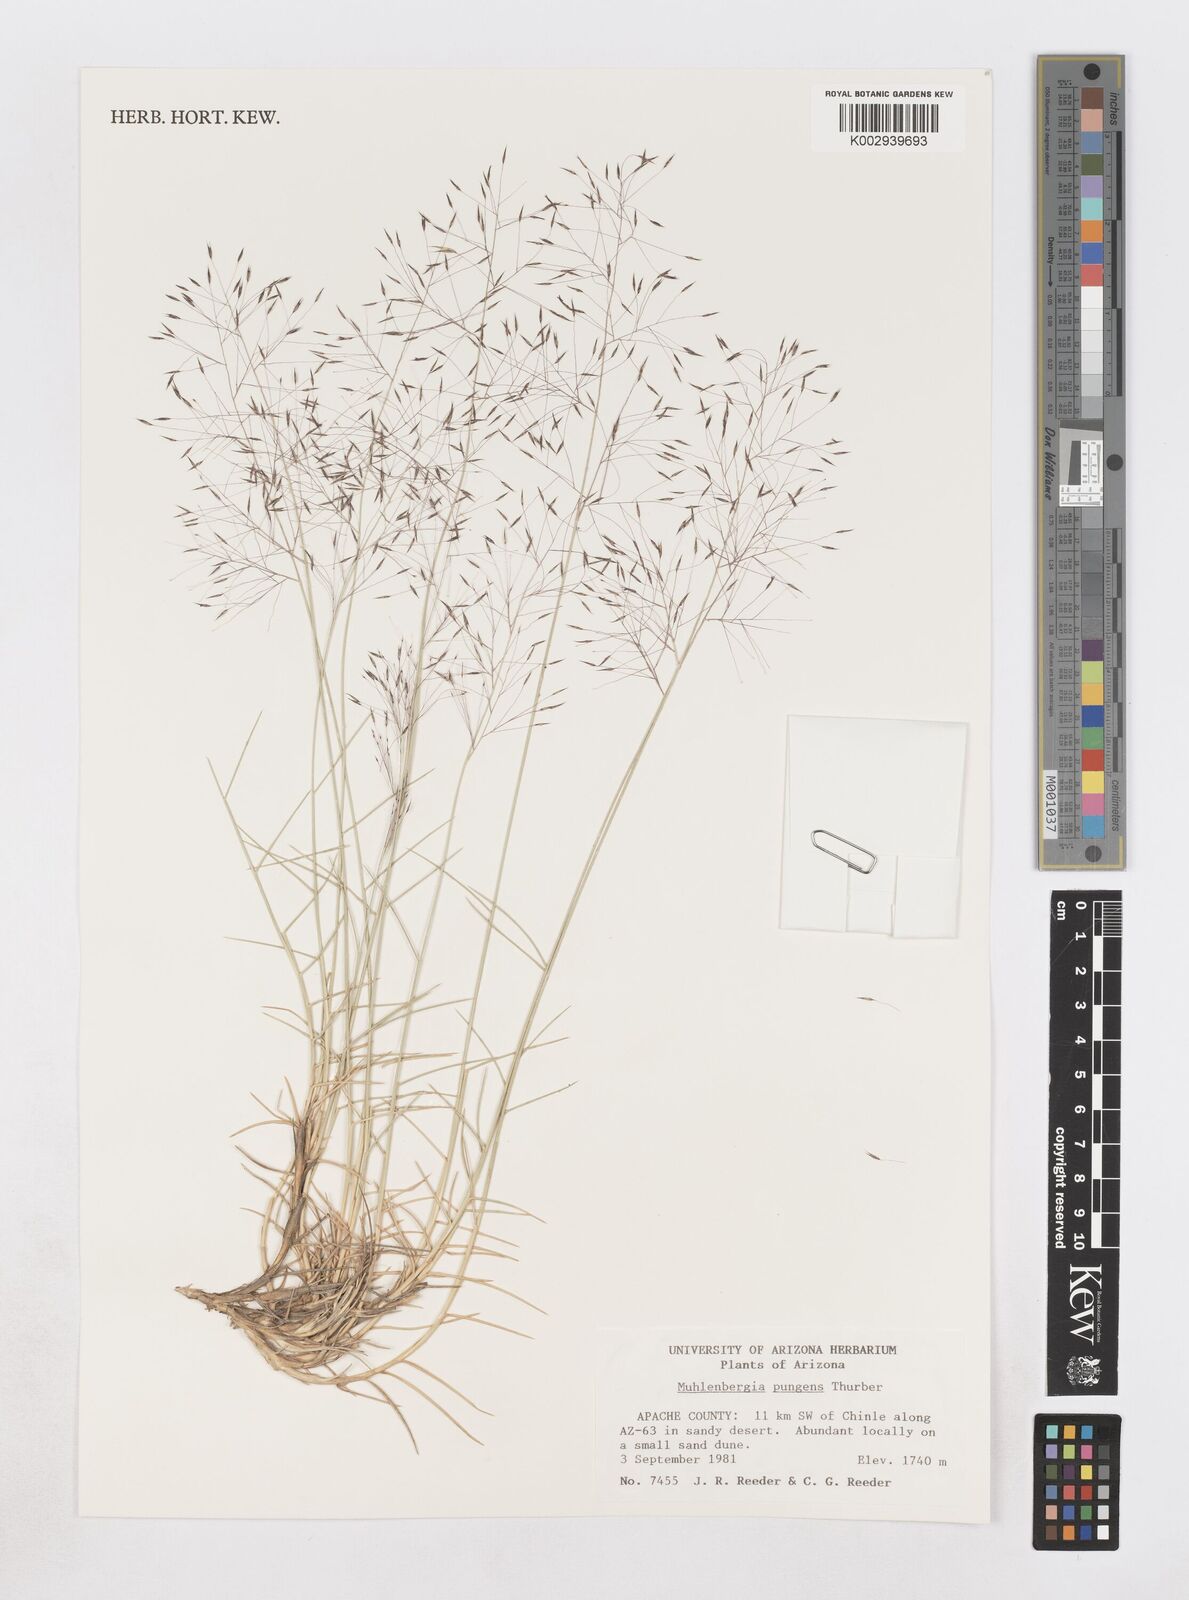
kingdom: Plantae
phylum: Tracheophyta
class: Liliopsida
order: Poales
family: Poaceae
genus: Muhlenbergia
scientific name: Muhlenbergia pungens
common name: Sandhill muhly
